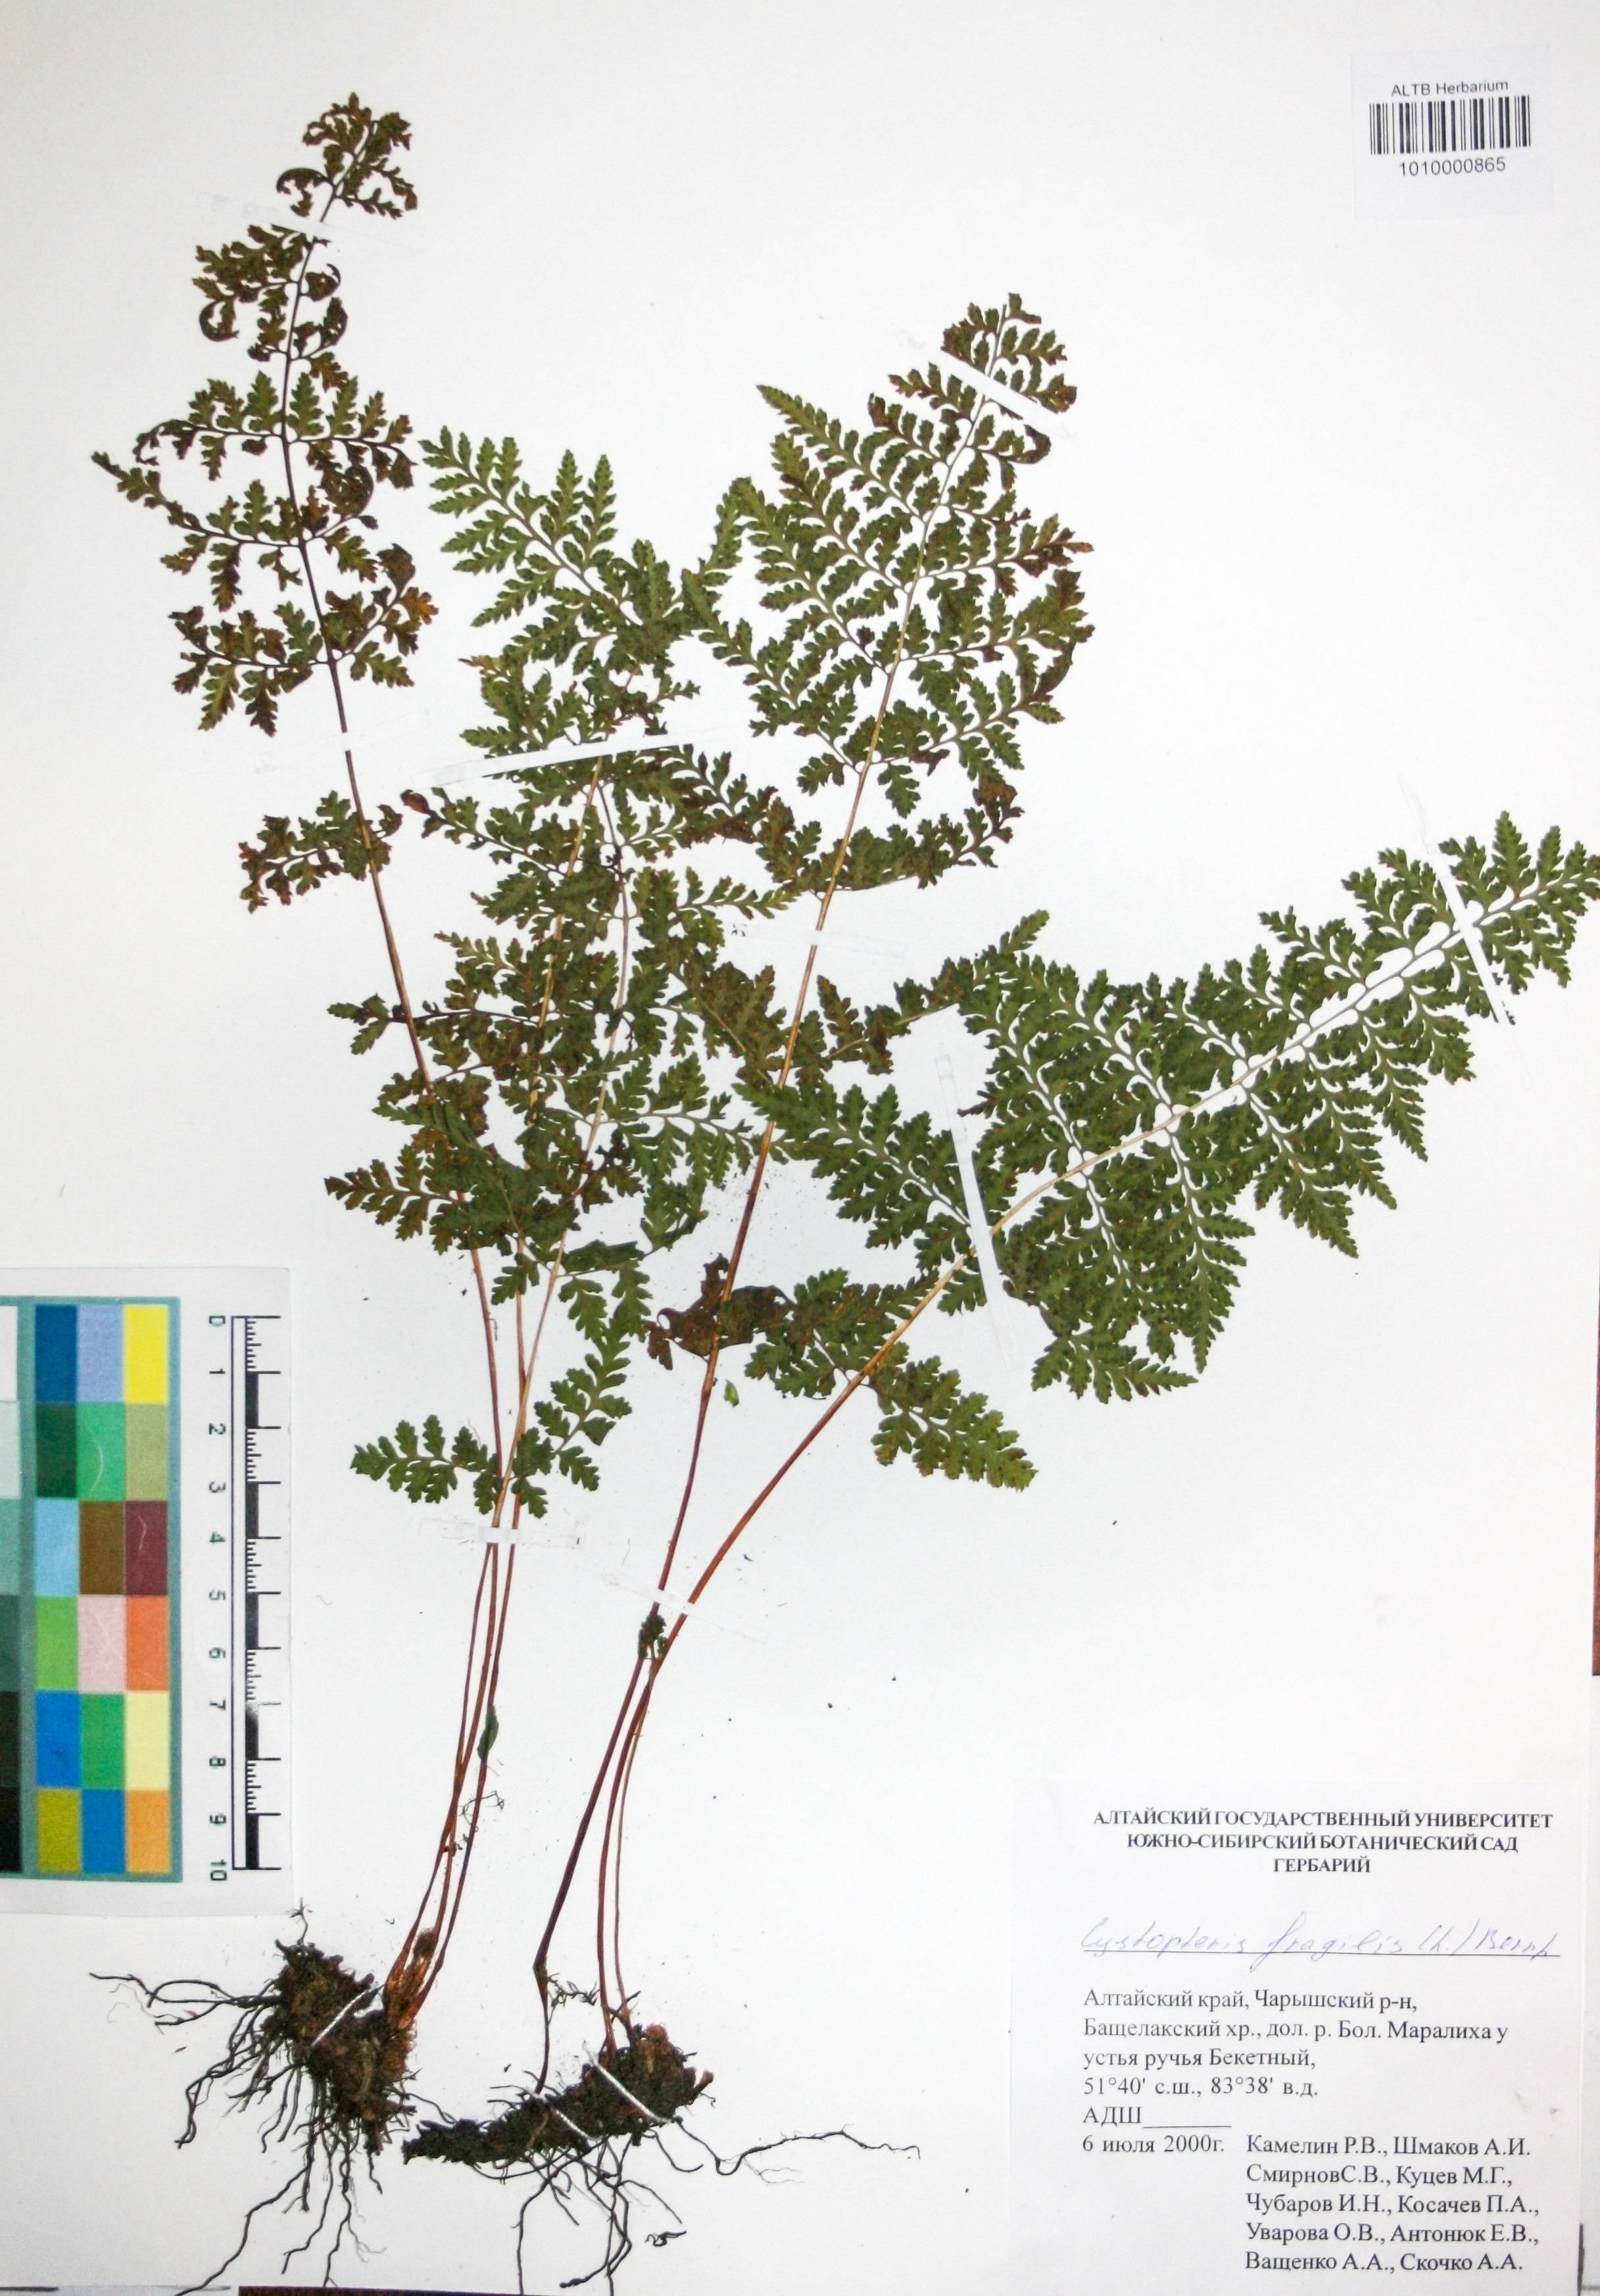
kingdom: Plantae
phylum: Tracheophyta
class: Polypodiopsida
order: Polypodiales
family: Cystopteridaceae
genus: Cystopteris
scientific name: Cystopteris fragilis
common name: Brittle bladder fern
